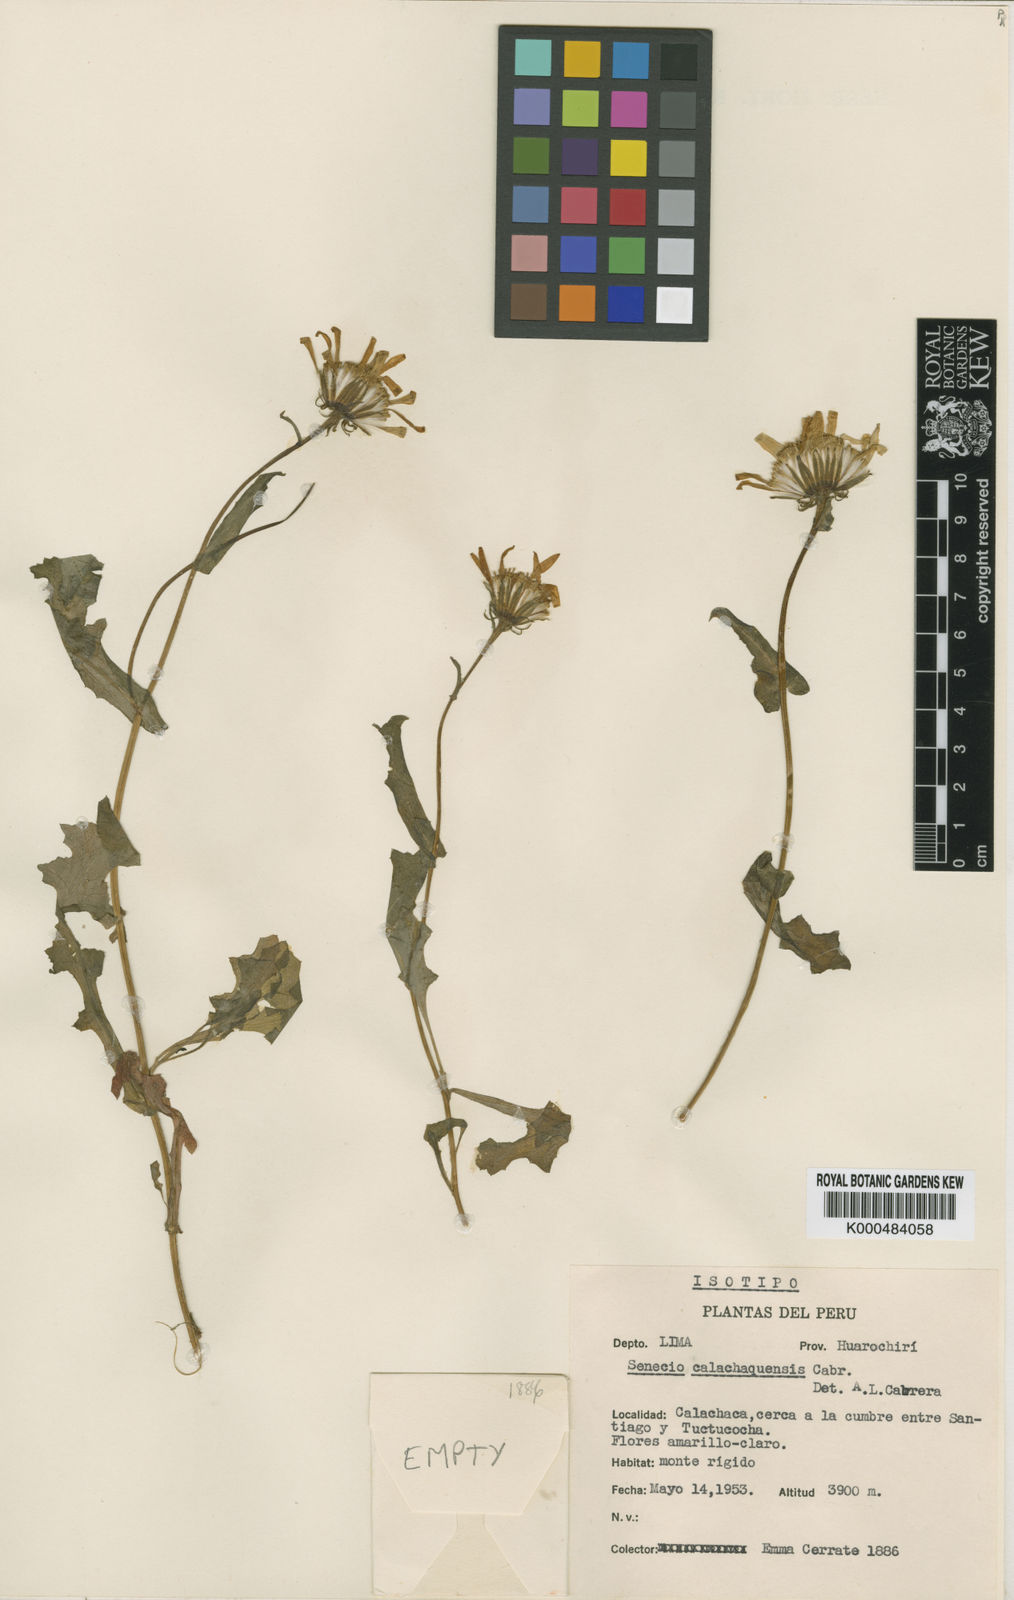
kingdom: Plantae
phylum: Tracheophyta
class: Magnoliopsida
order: Asterales
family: Asteraceae
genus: Lomanthus
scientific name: Lomanthus calachaquensis
